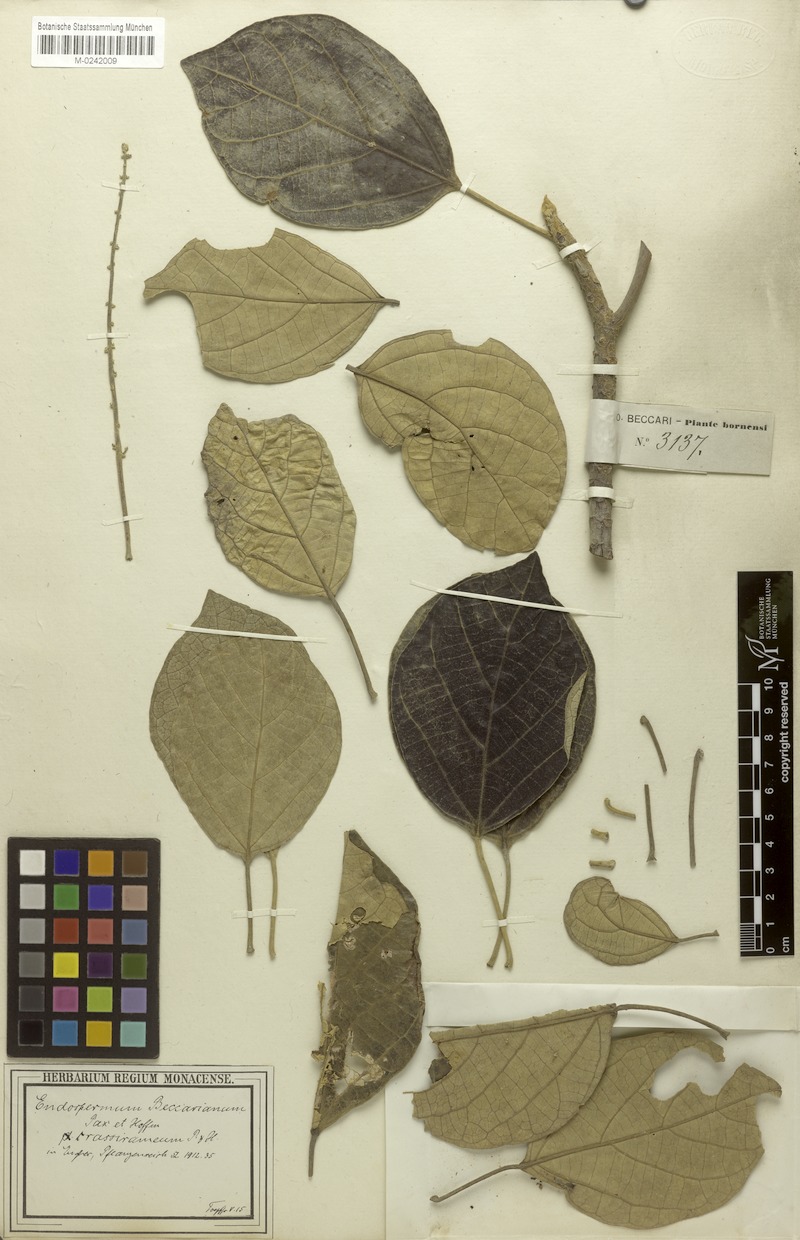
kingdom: Plantae
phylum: Tracheophyta
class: Magnoliopsida
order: Malpighiales
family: Euphorbiaceae
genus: Endospermum
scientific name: Endospermum diadenum
